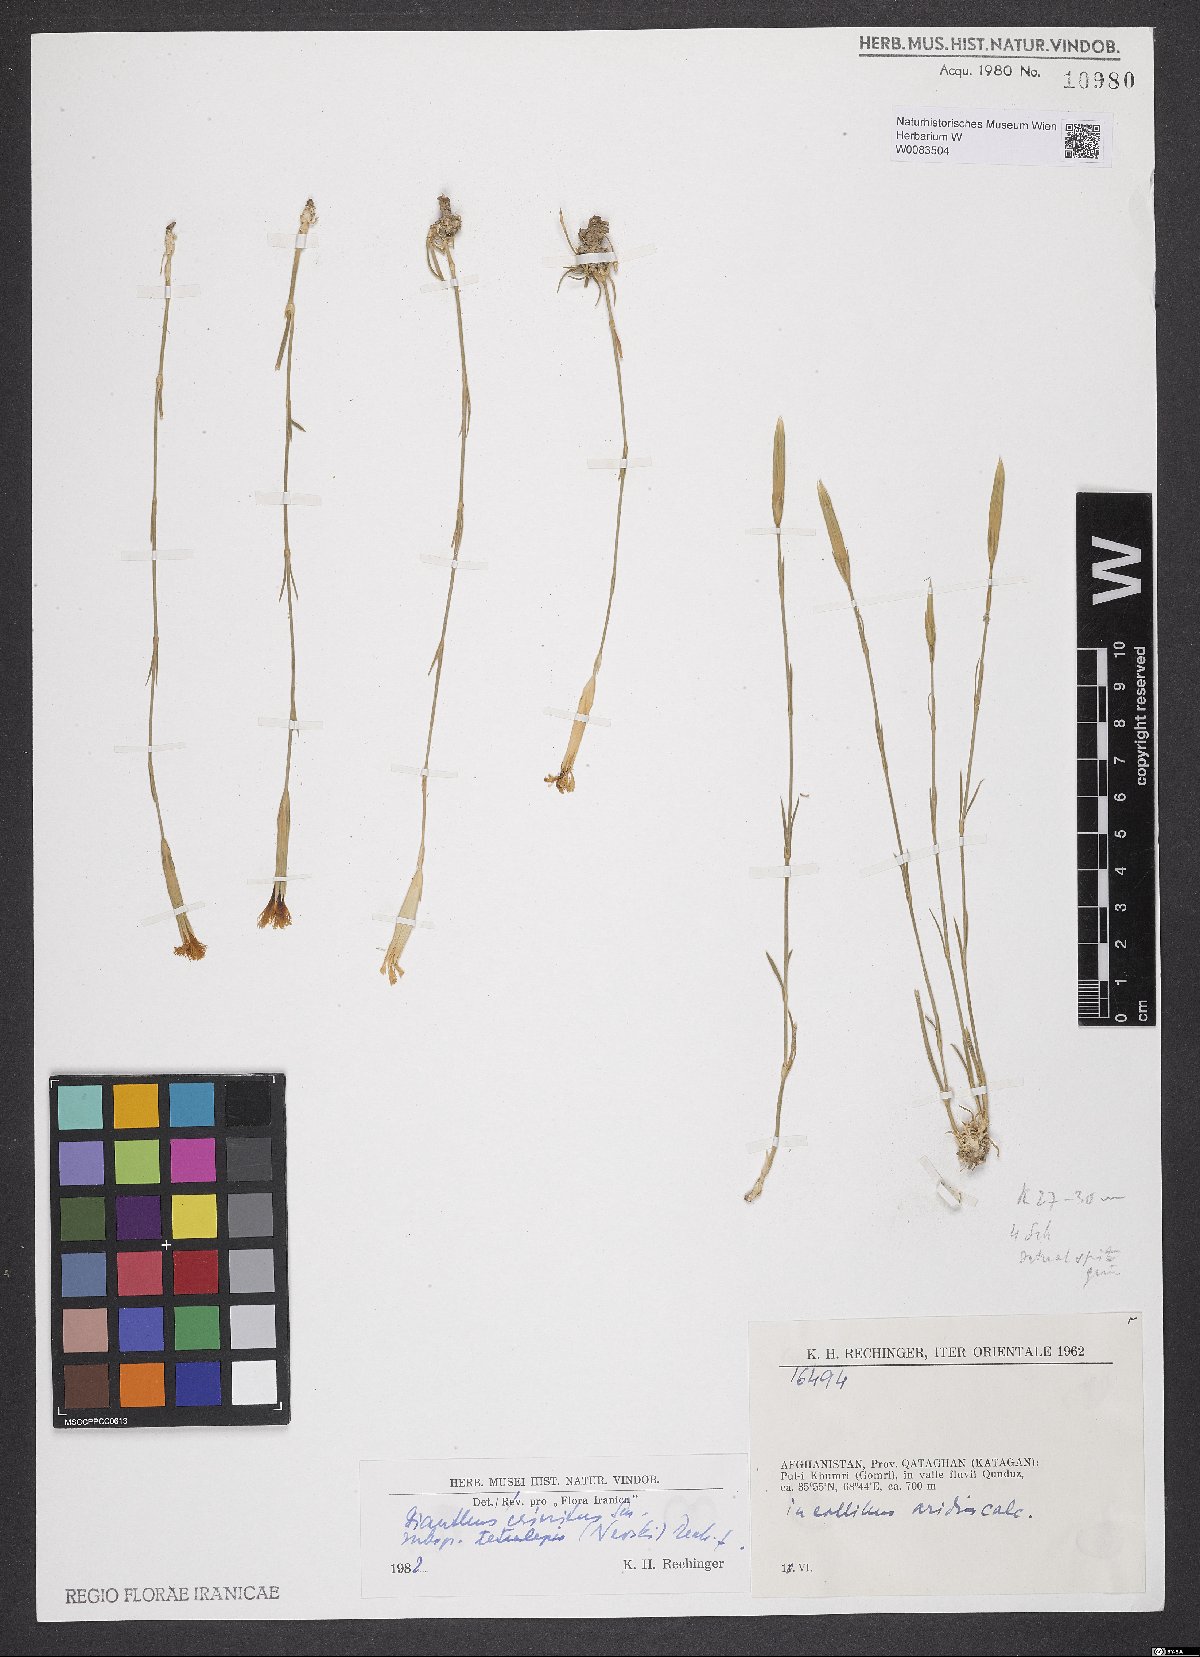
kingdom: Plantae
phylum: Tracheophyta
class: Magnoliopsida
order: Caryophyllales
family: Caryophyllaceae
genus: Dianthus
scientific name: Dianthus crinitus
